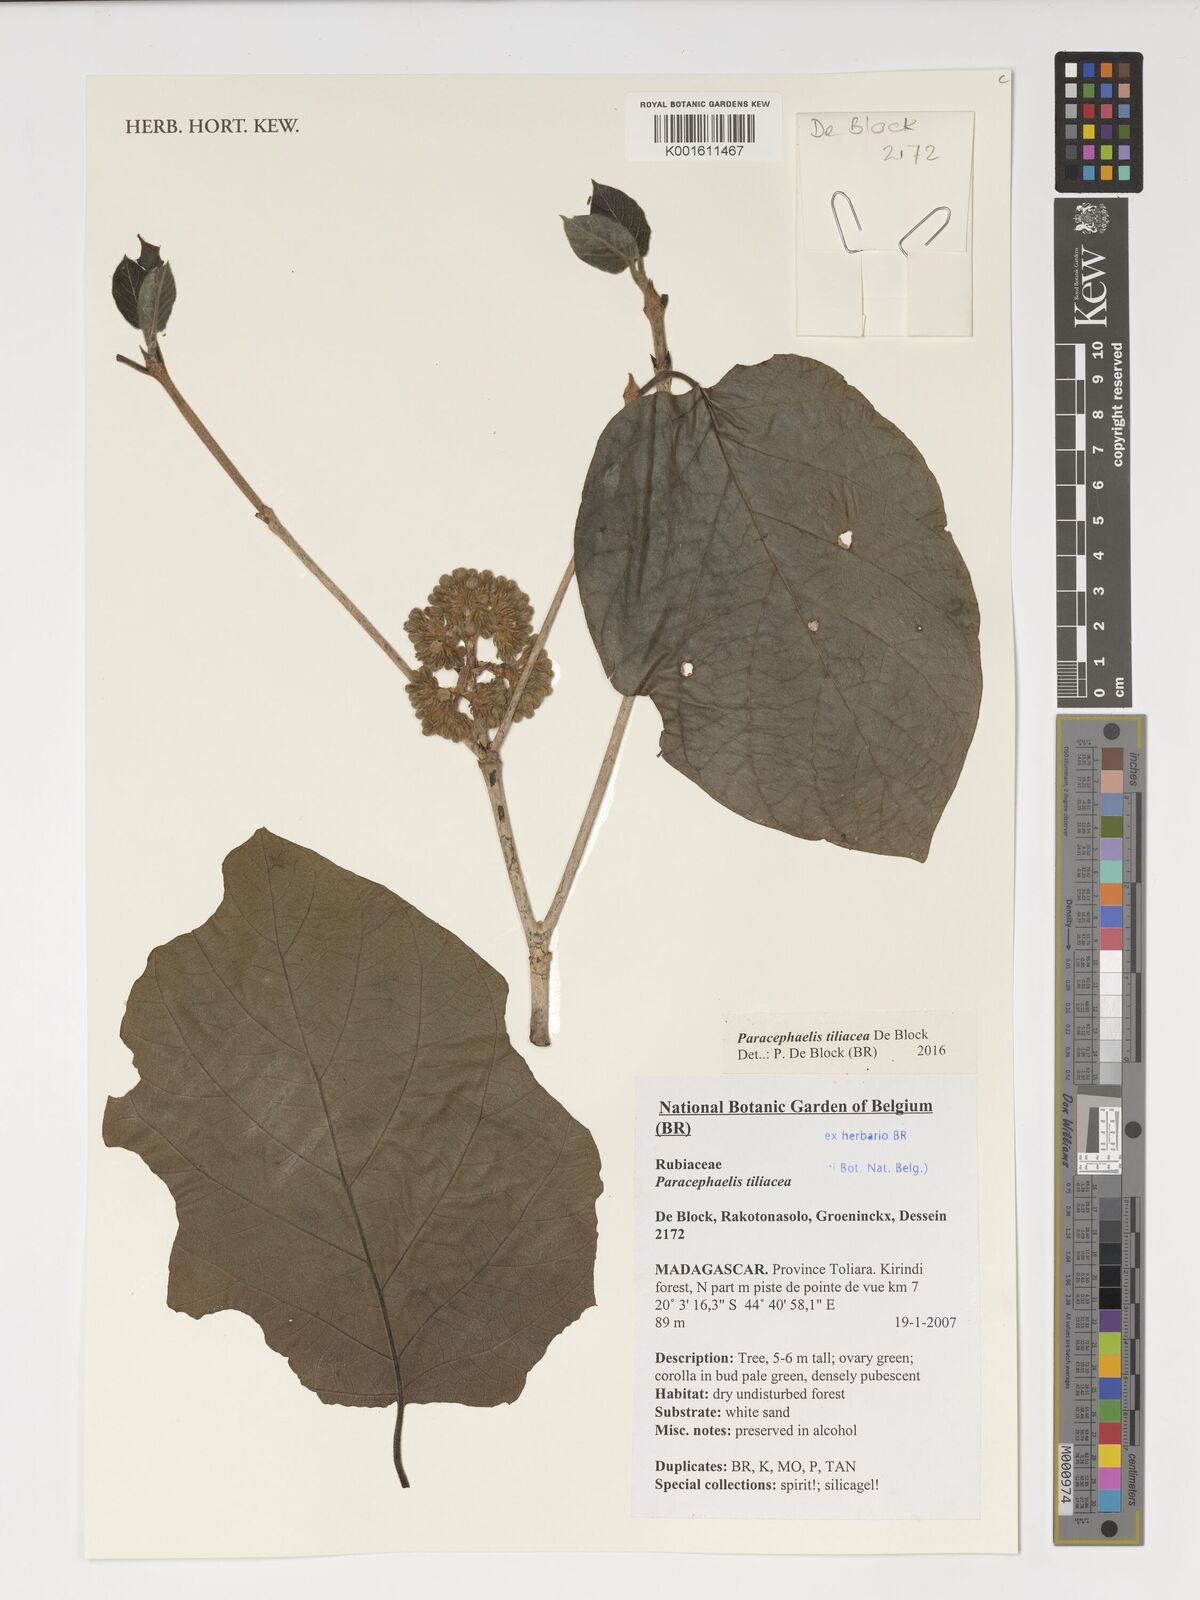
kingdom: Plantae
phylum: Tracheophyta
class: Magnoliopsida
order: Gentianales
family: Rubiaceae
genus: Paracephaelis
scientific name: Paracephaelis tiliacea
